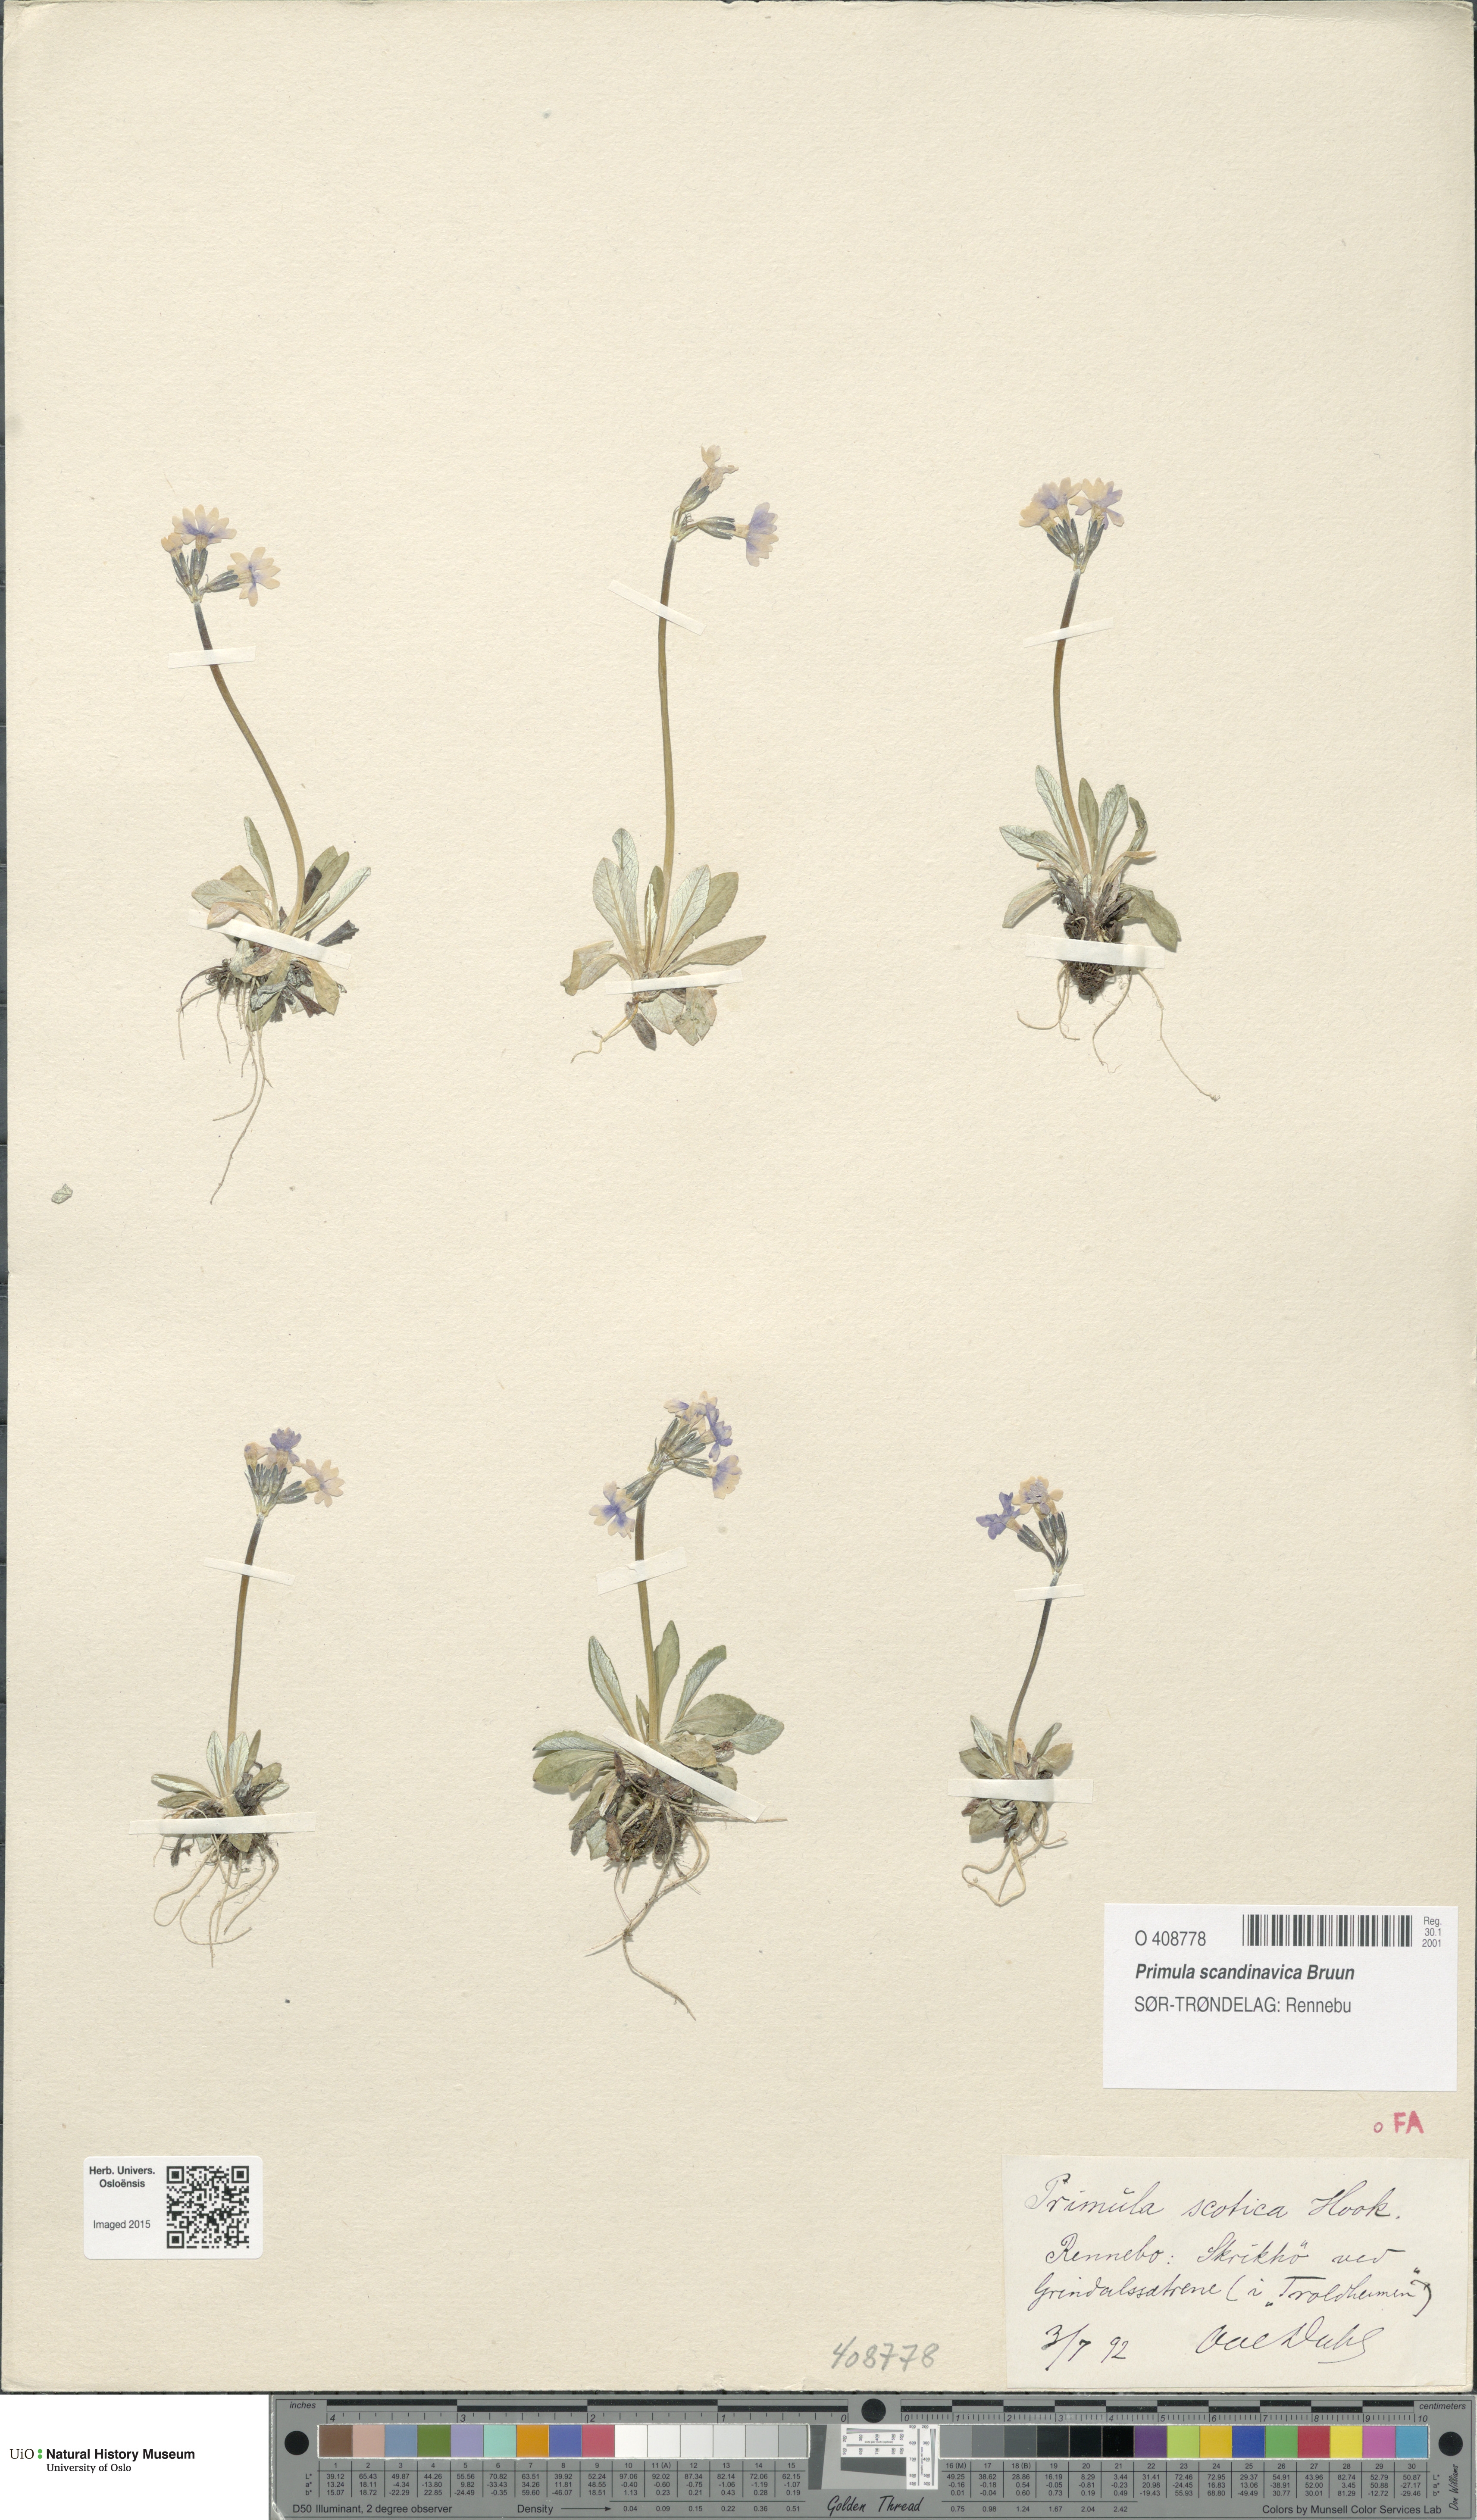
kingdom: Plantae
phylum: Tracheophyta
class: Magnoliopsida
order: Ericales
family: Primulaceae
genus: Primula
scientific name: Primula scandinavica
